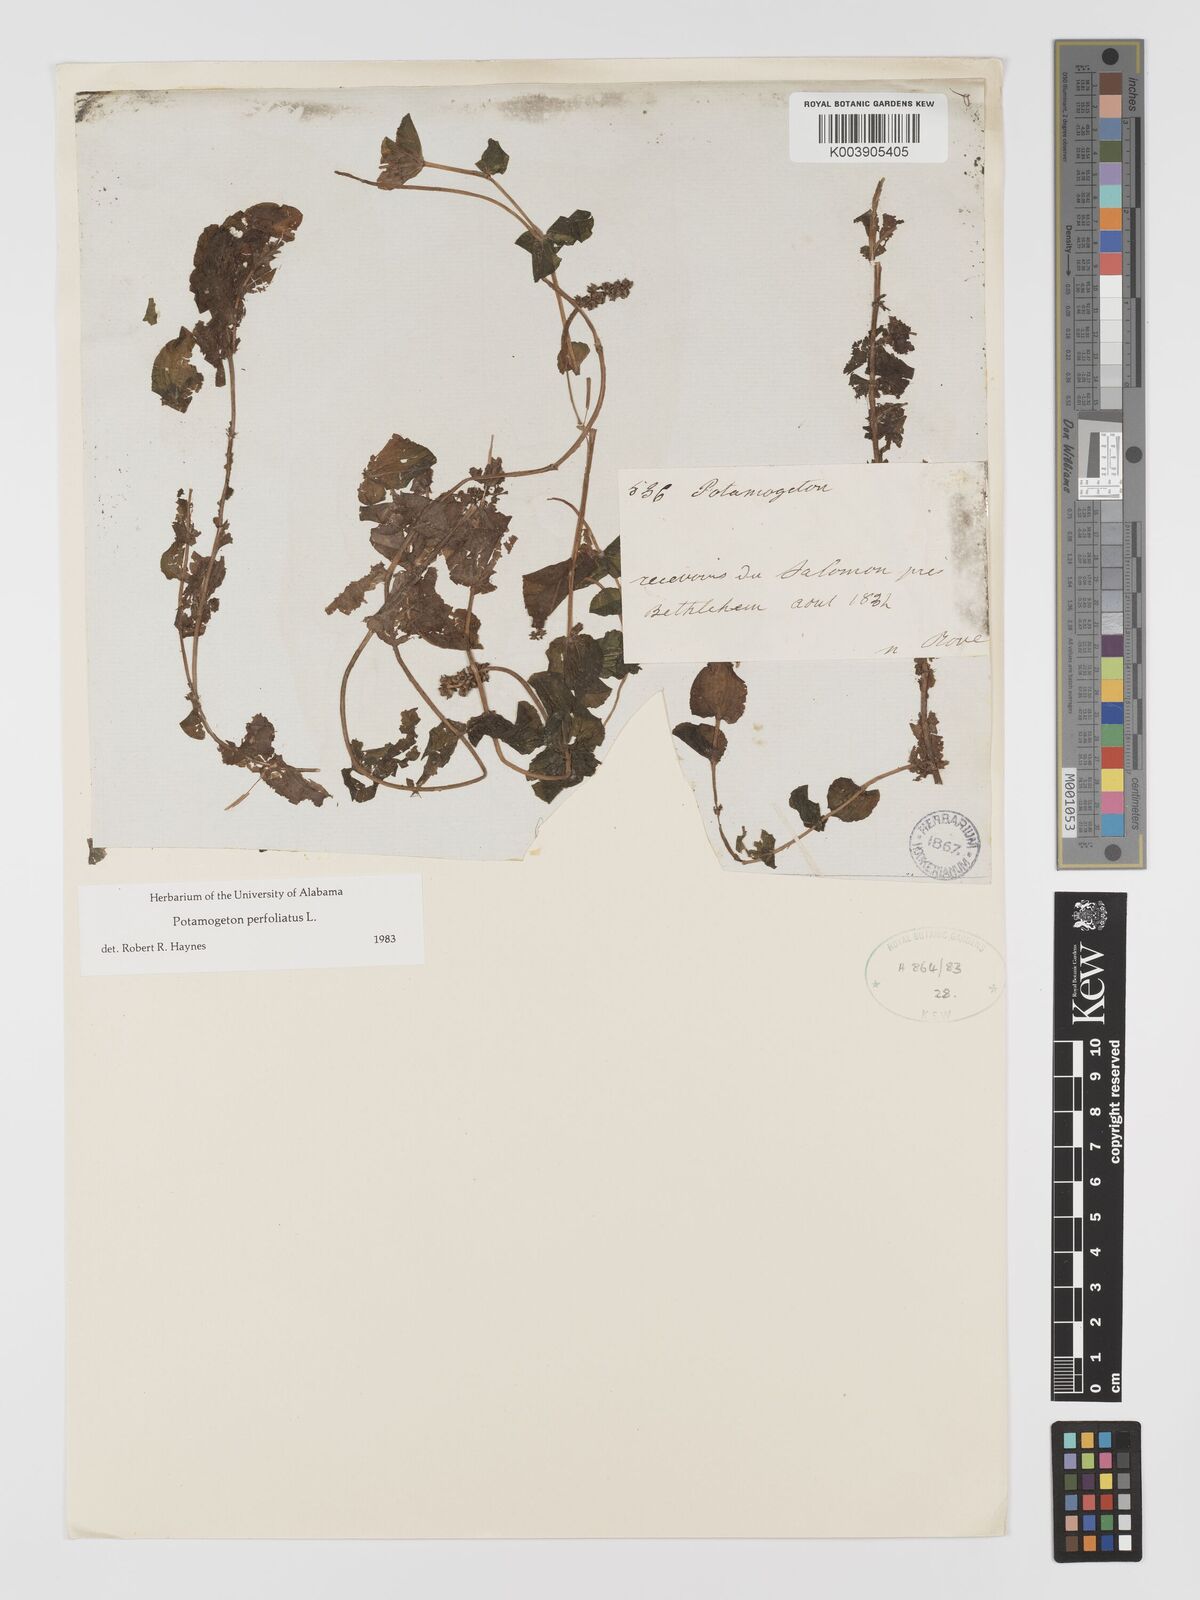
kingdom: Plantae
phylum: Tracheophyta
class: Liliopsida
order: Alismatales
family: Potamogetonaceae
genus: Potamogeton
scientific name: Potamogeton perfoliatus
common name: Perfoliate pondweed
